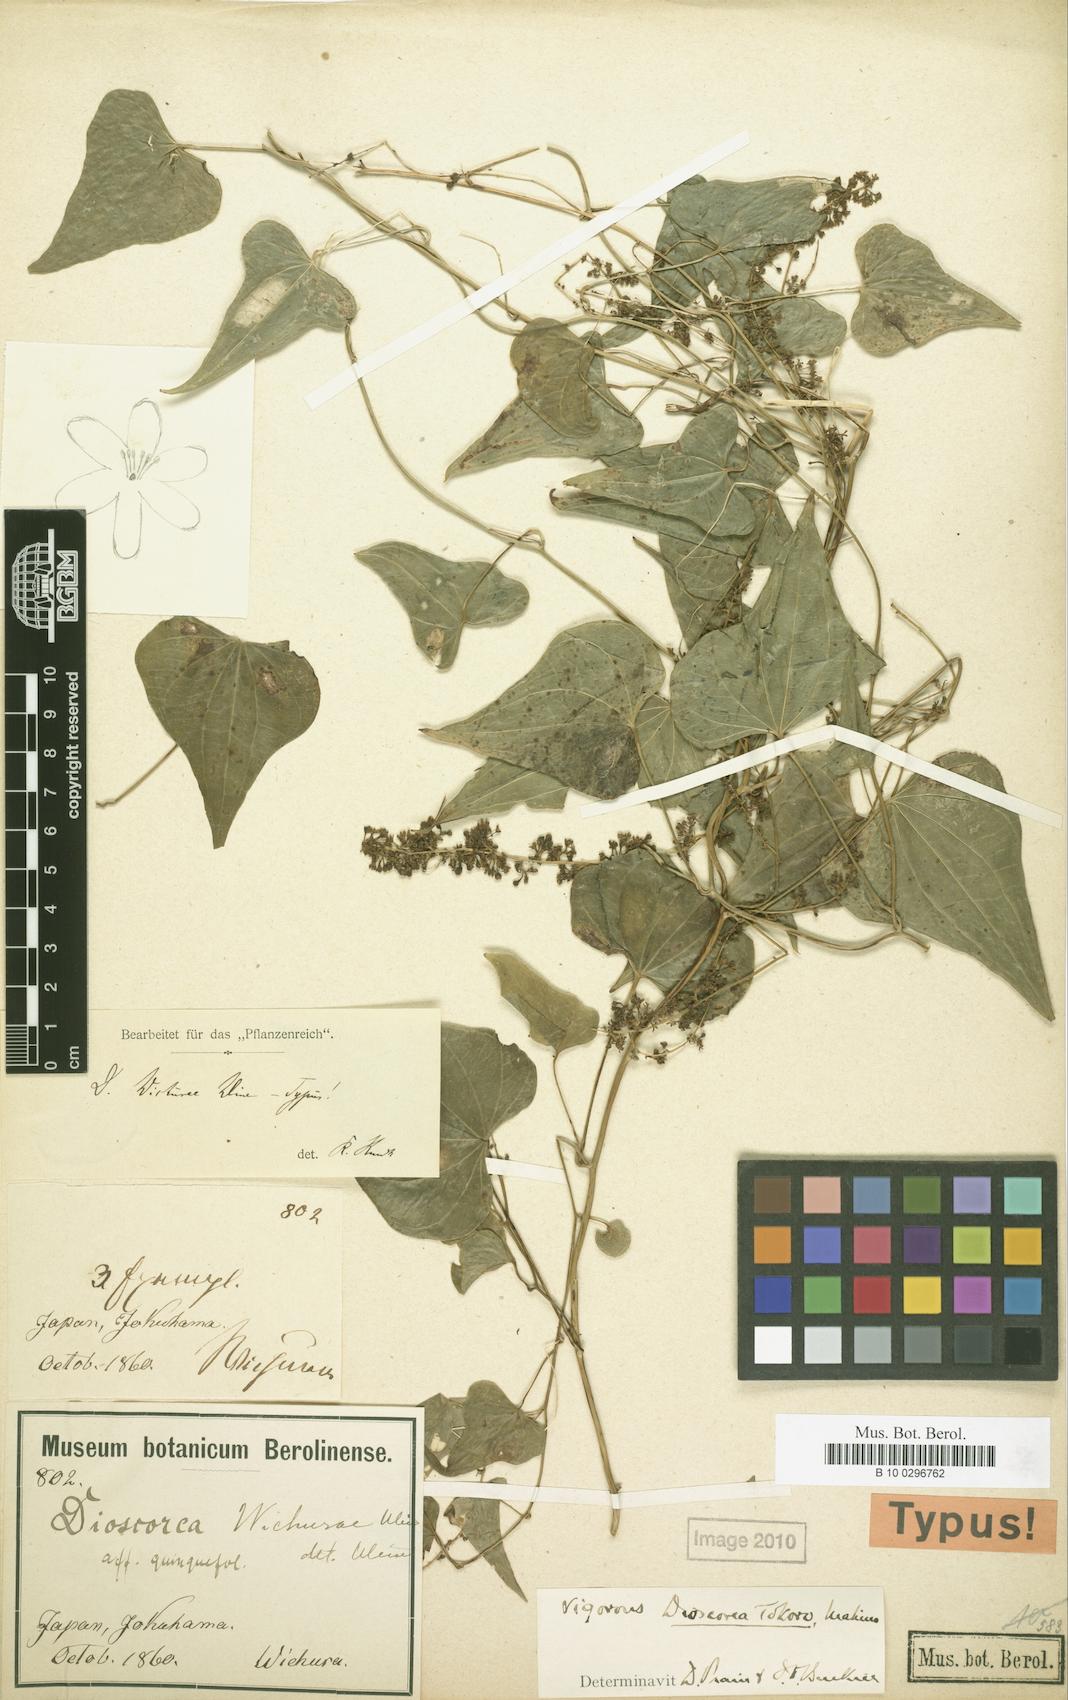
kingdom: Plantae
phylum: Tracheophyta
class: Liliopsida
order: Dioscoreales
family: Dioscoreaceae
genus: Dioscorea
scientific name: Dioscorea tokoro
